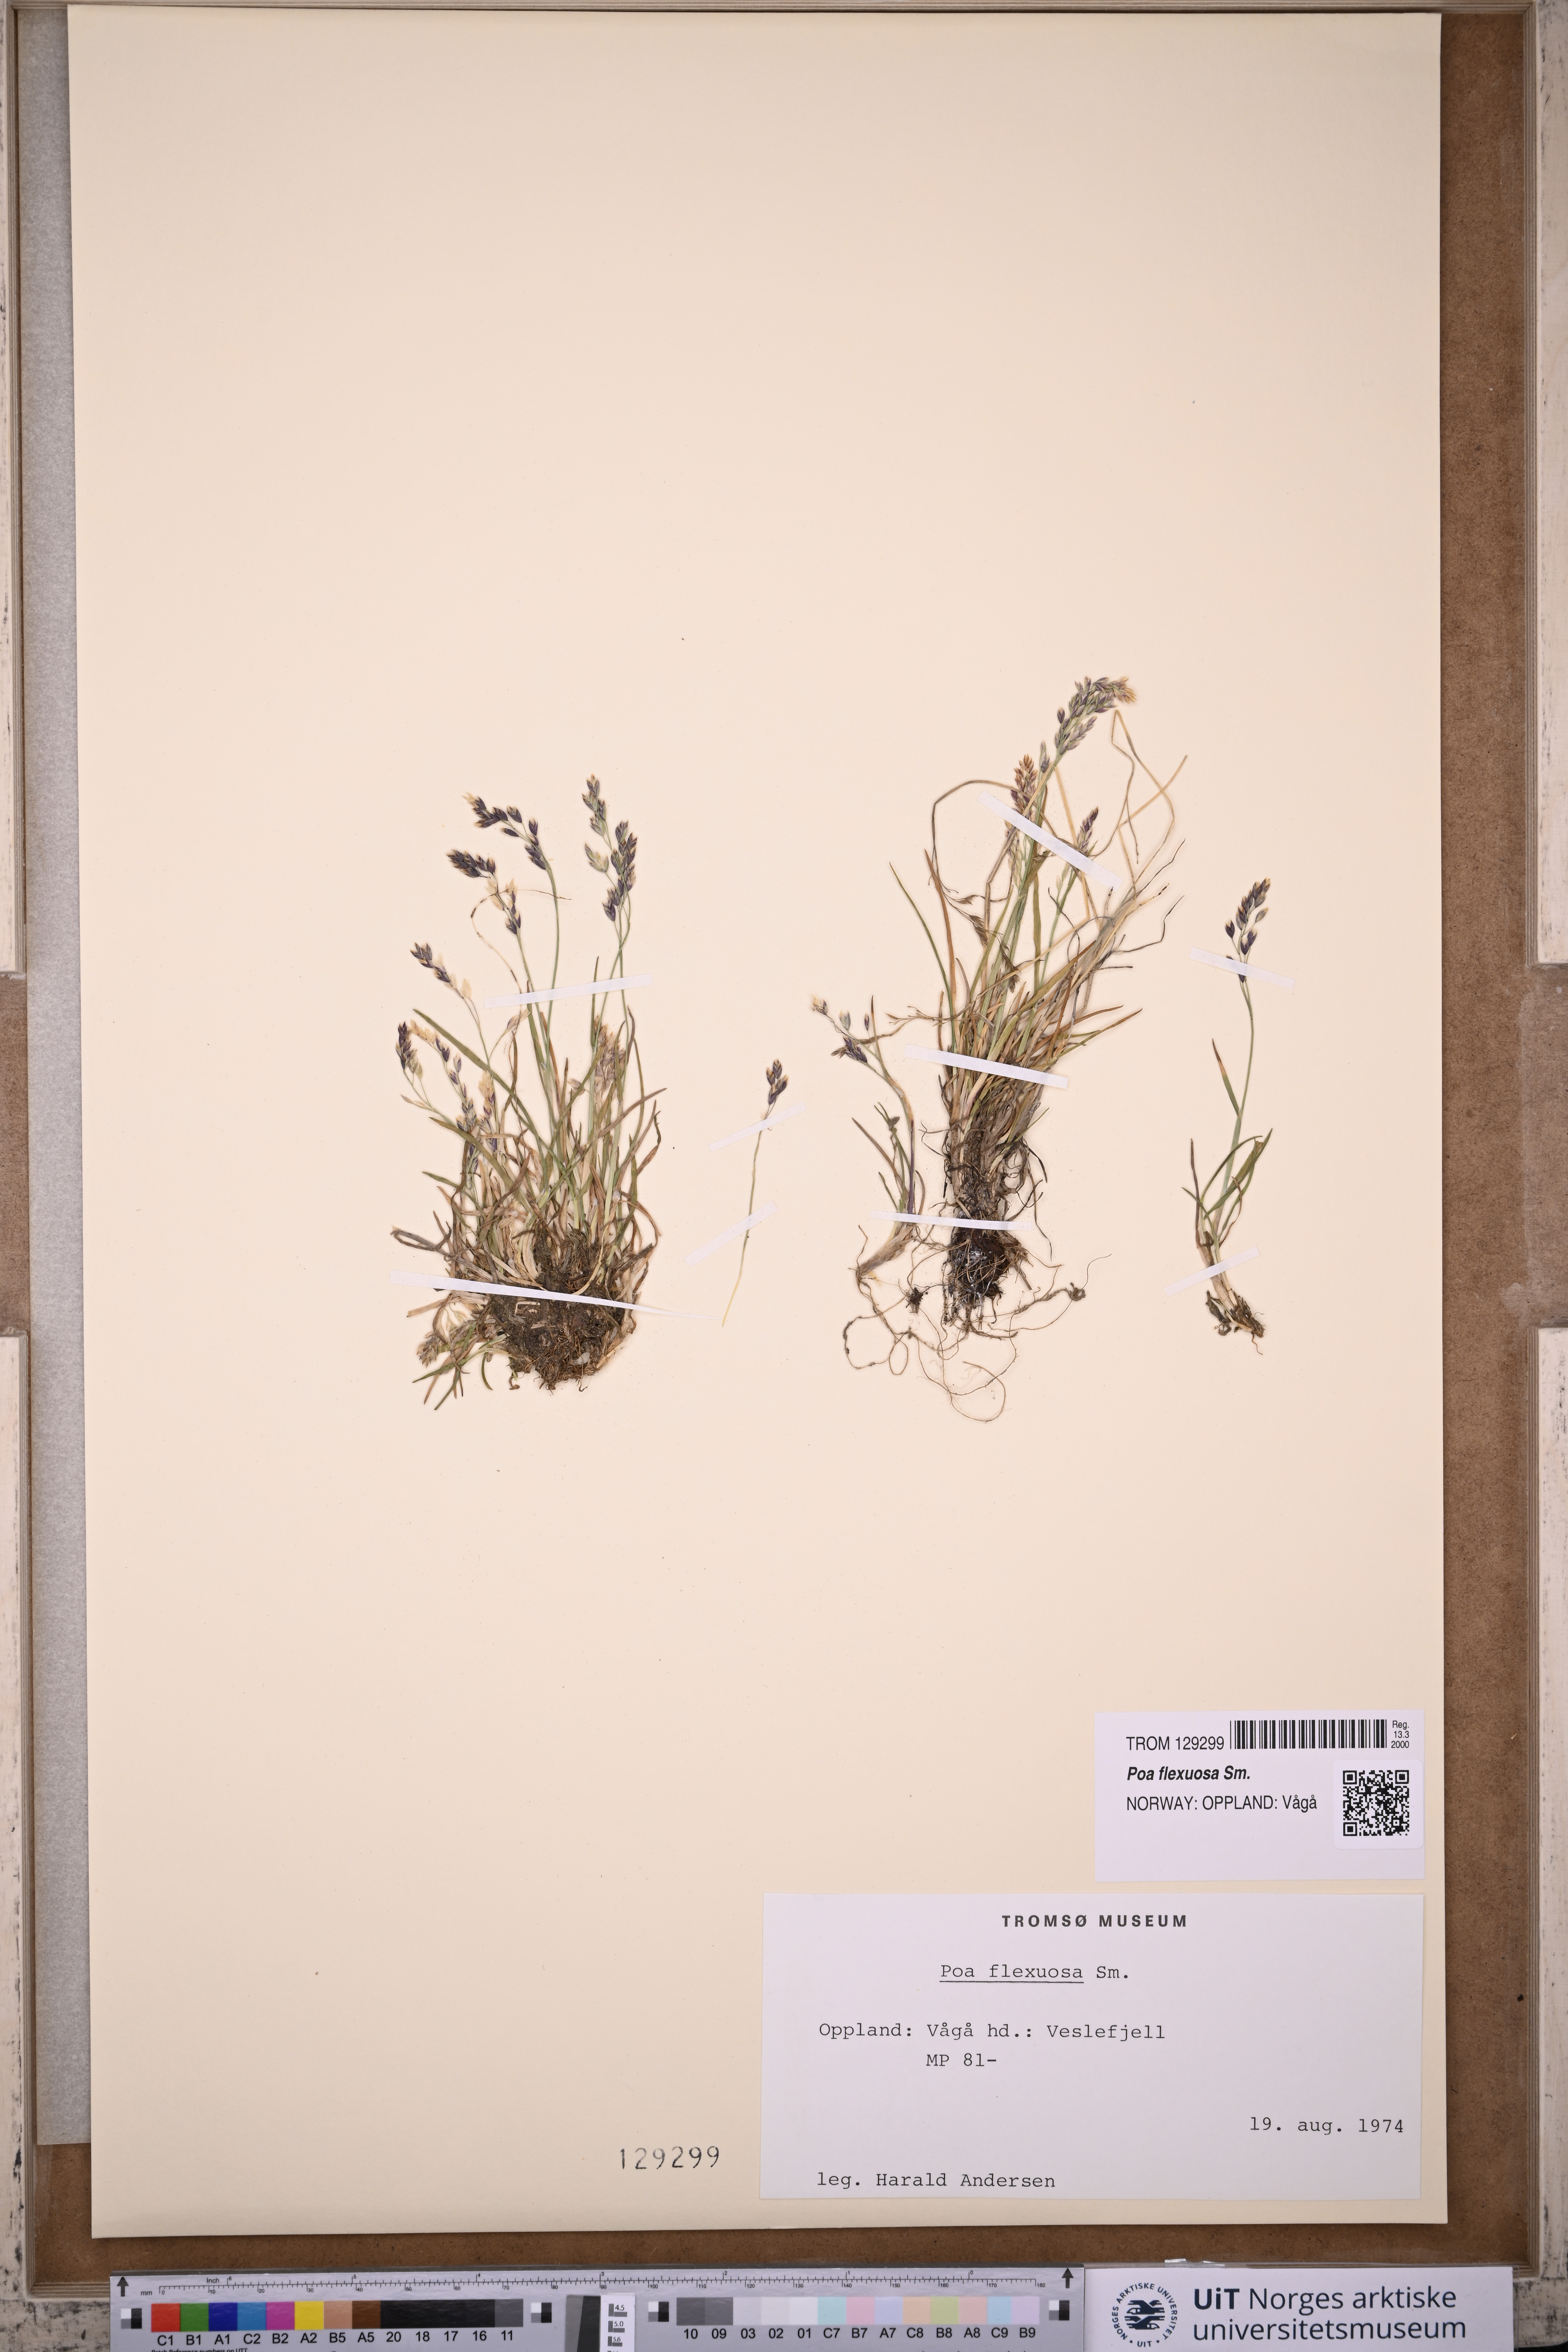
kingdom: Plantae
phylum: Tracheophyta
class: Liliopsida
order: Poales
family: Poaceae
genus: Poa
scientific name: Poa flexuosa
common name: Wavy meadow-grass
